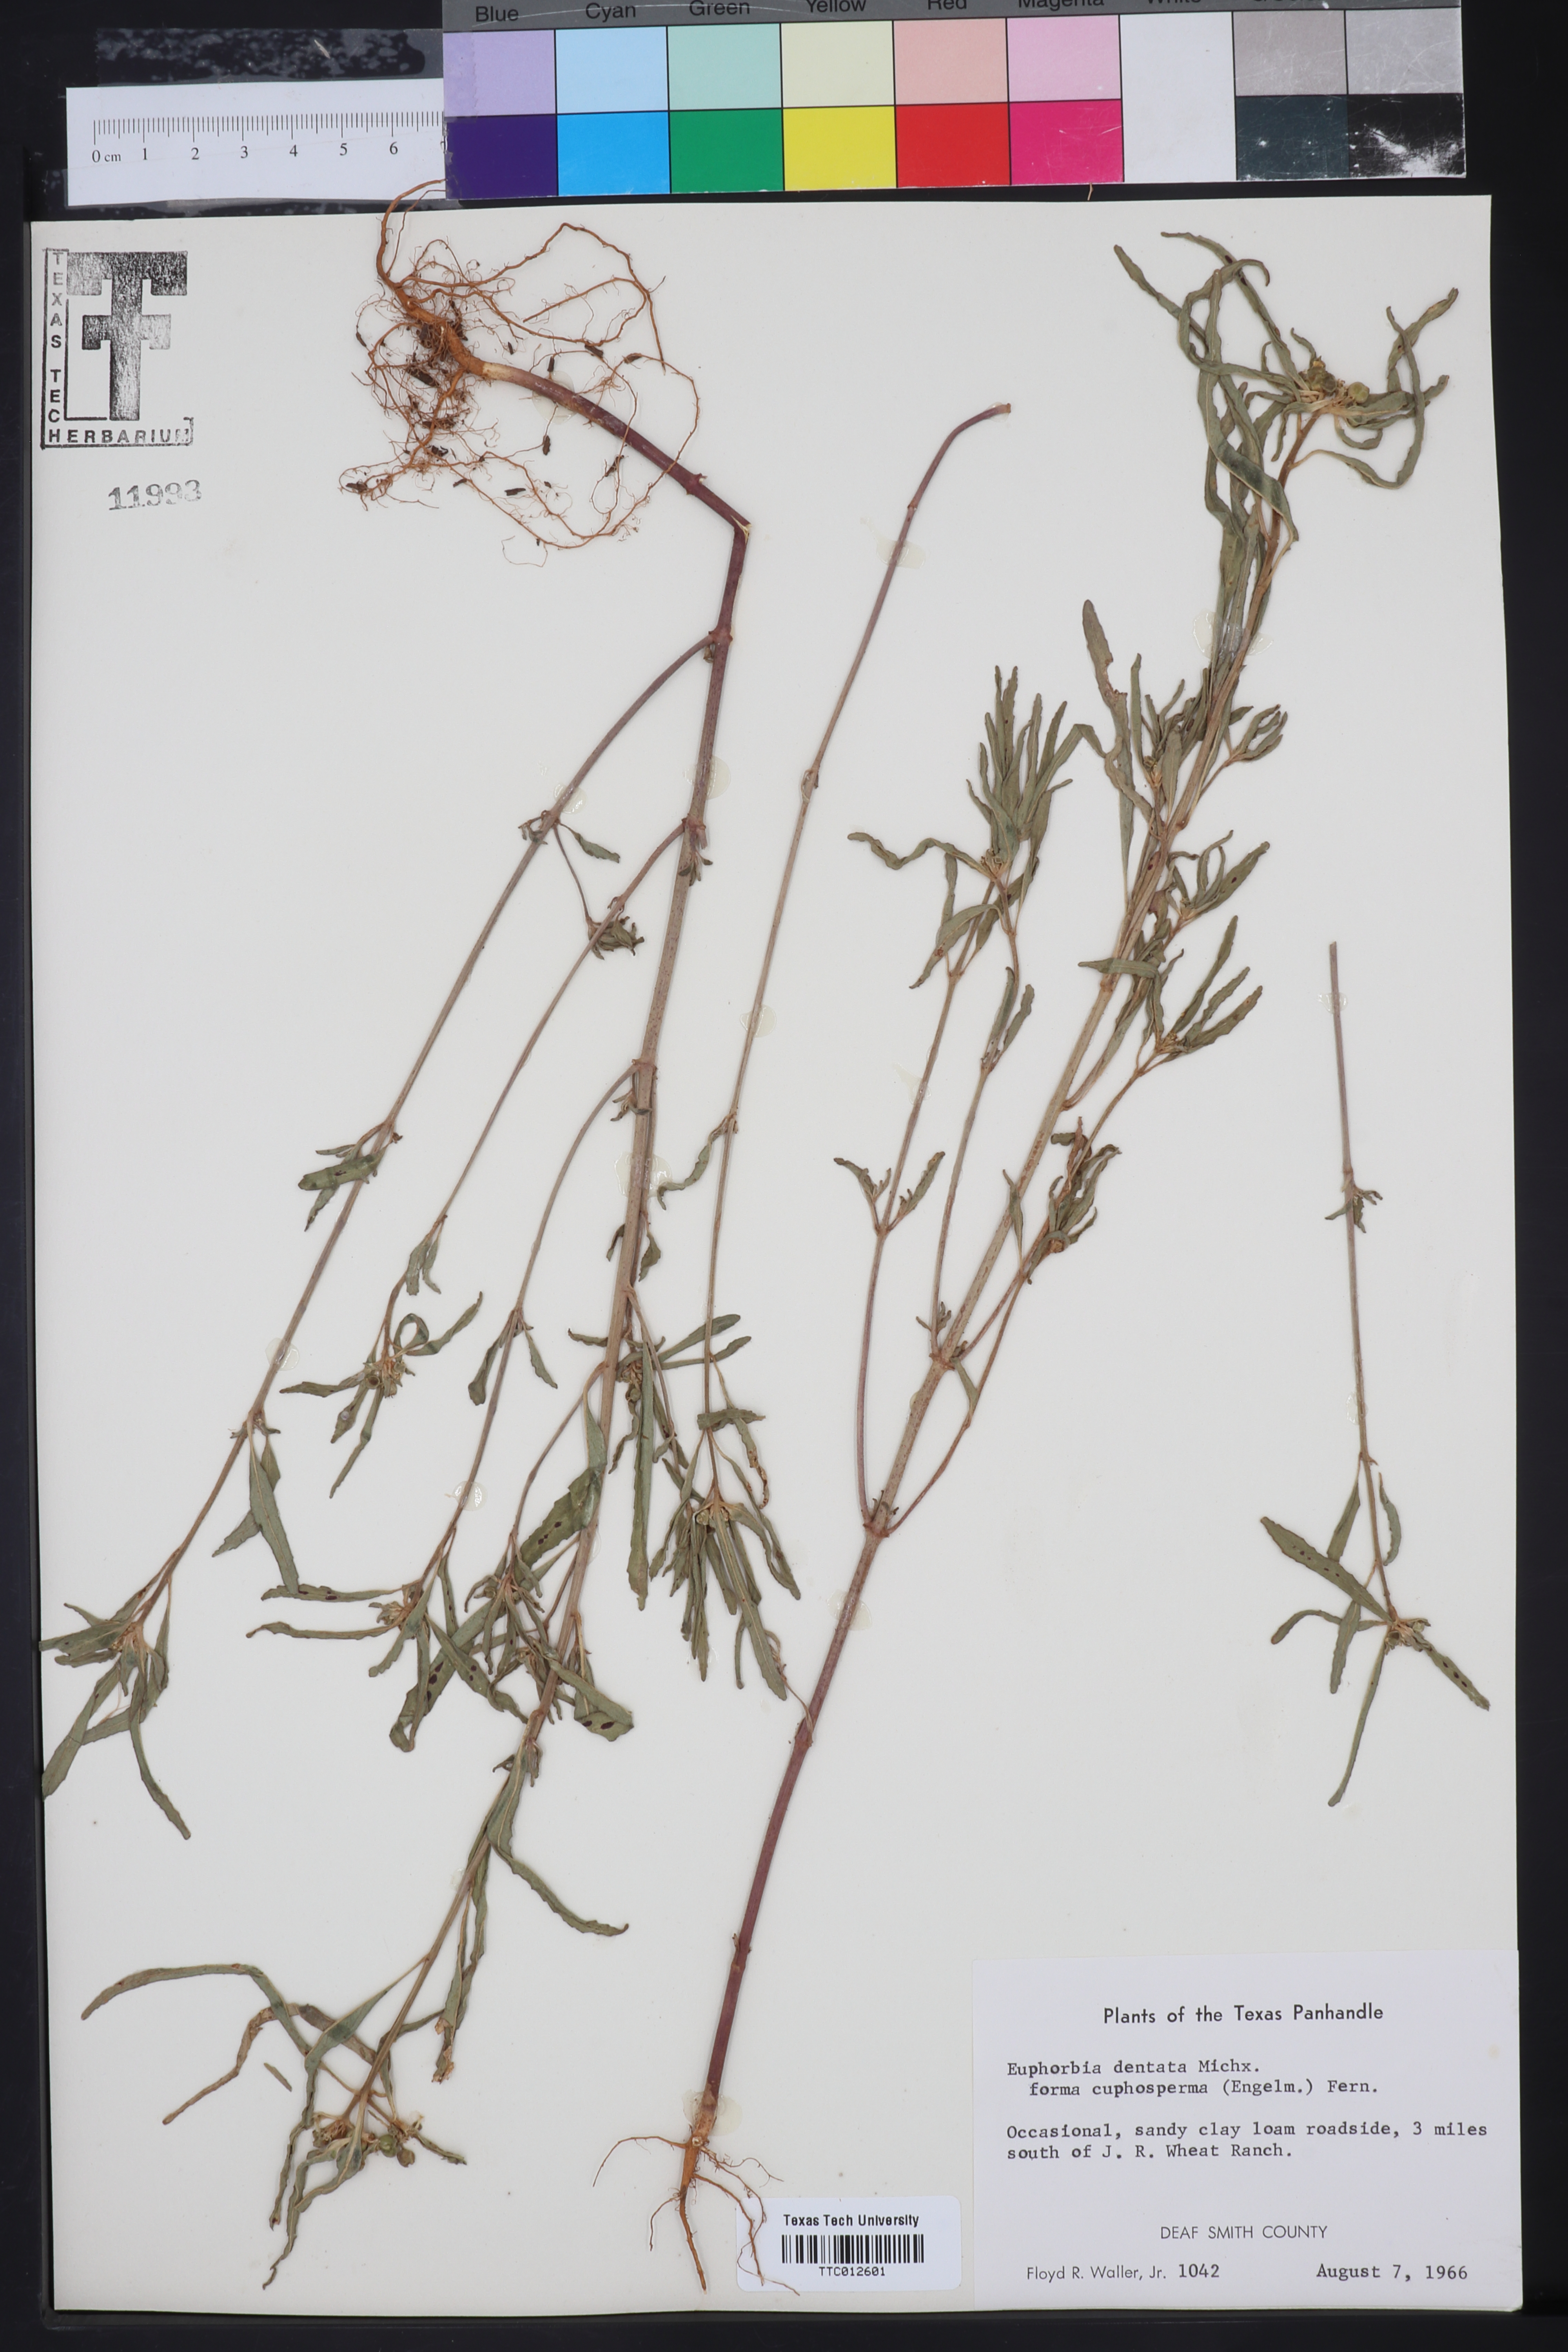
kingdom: Plantae
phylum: Tracheophyta
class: Magnoliopsida
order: Malpighiales
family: Euphorbiaceae
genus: Euphorbia
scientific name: Euphorbia dentata
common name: Dentate spurge
